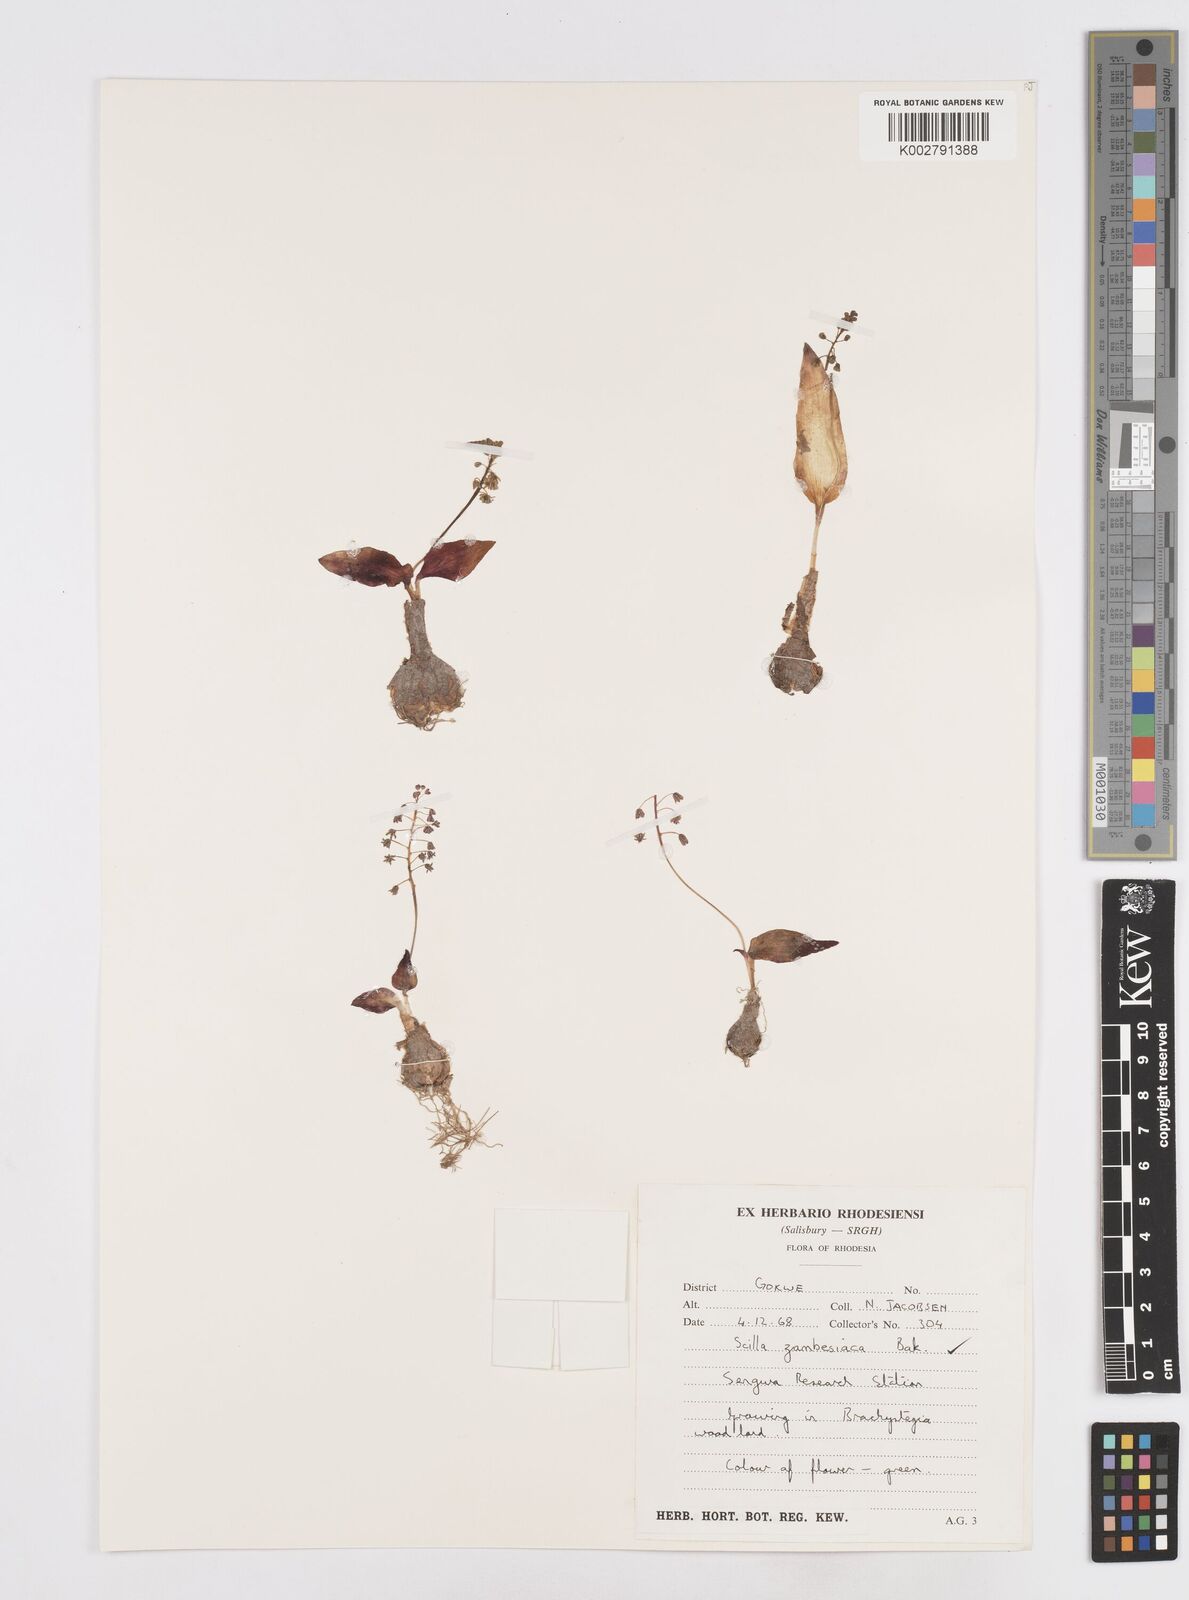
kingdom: Plantae
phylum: Tracheophyta
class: Liliopsida
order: Asparagales
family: Asparagaceae
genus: Ledebouria
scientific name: Ledebouria zambesiaca
